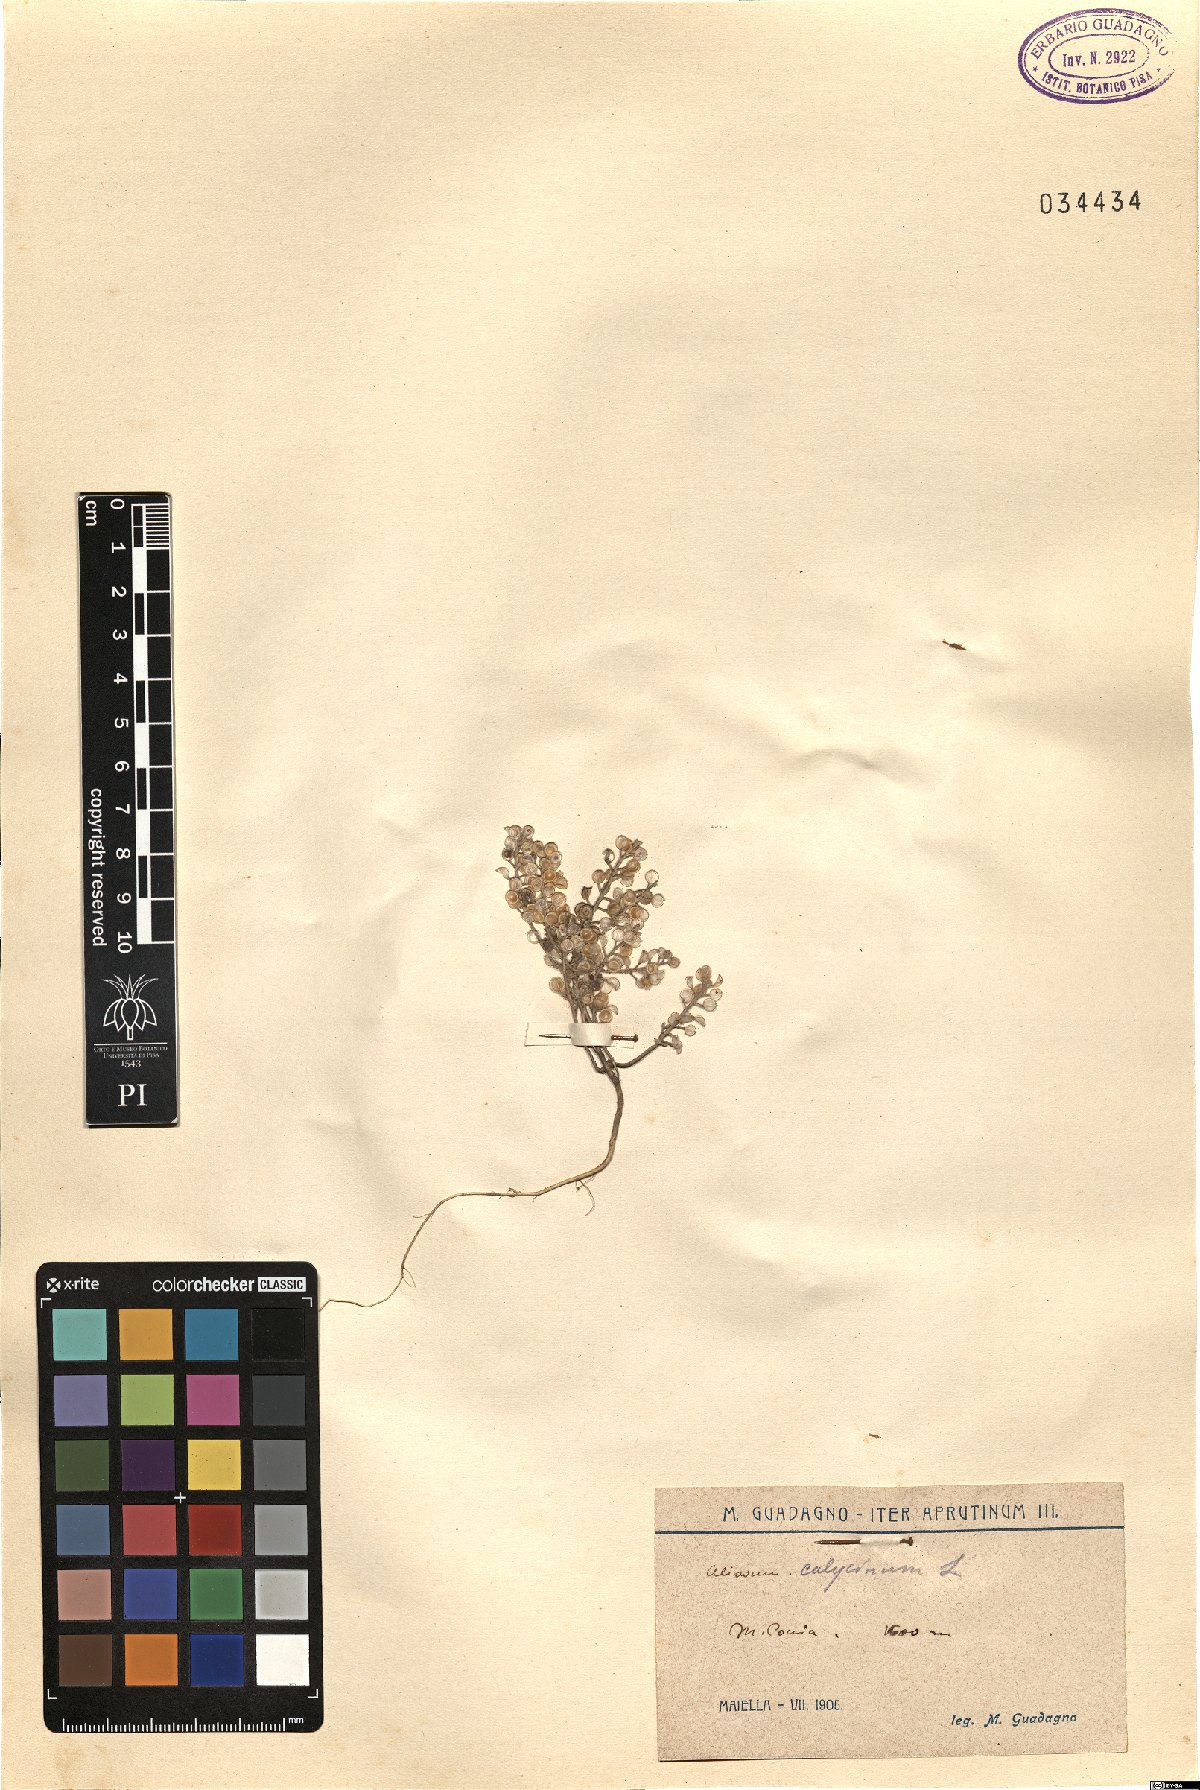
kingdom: Plantae
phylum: Tracheophyta
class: Magnoliopsida
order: Brassicales
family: Brassicaceae
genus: Alyssum
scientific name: Alyssum alyssoides
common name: Small alison
